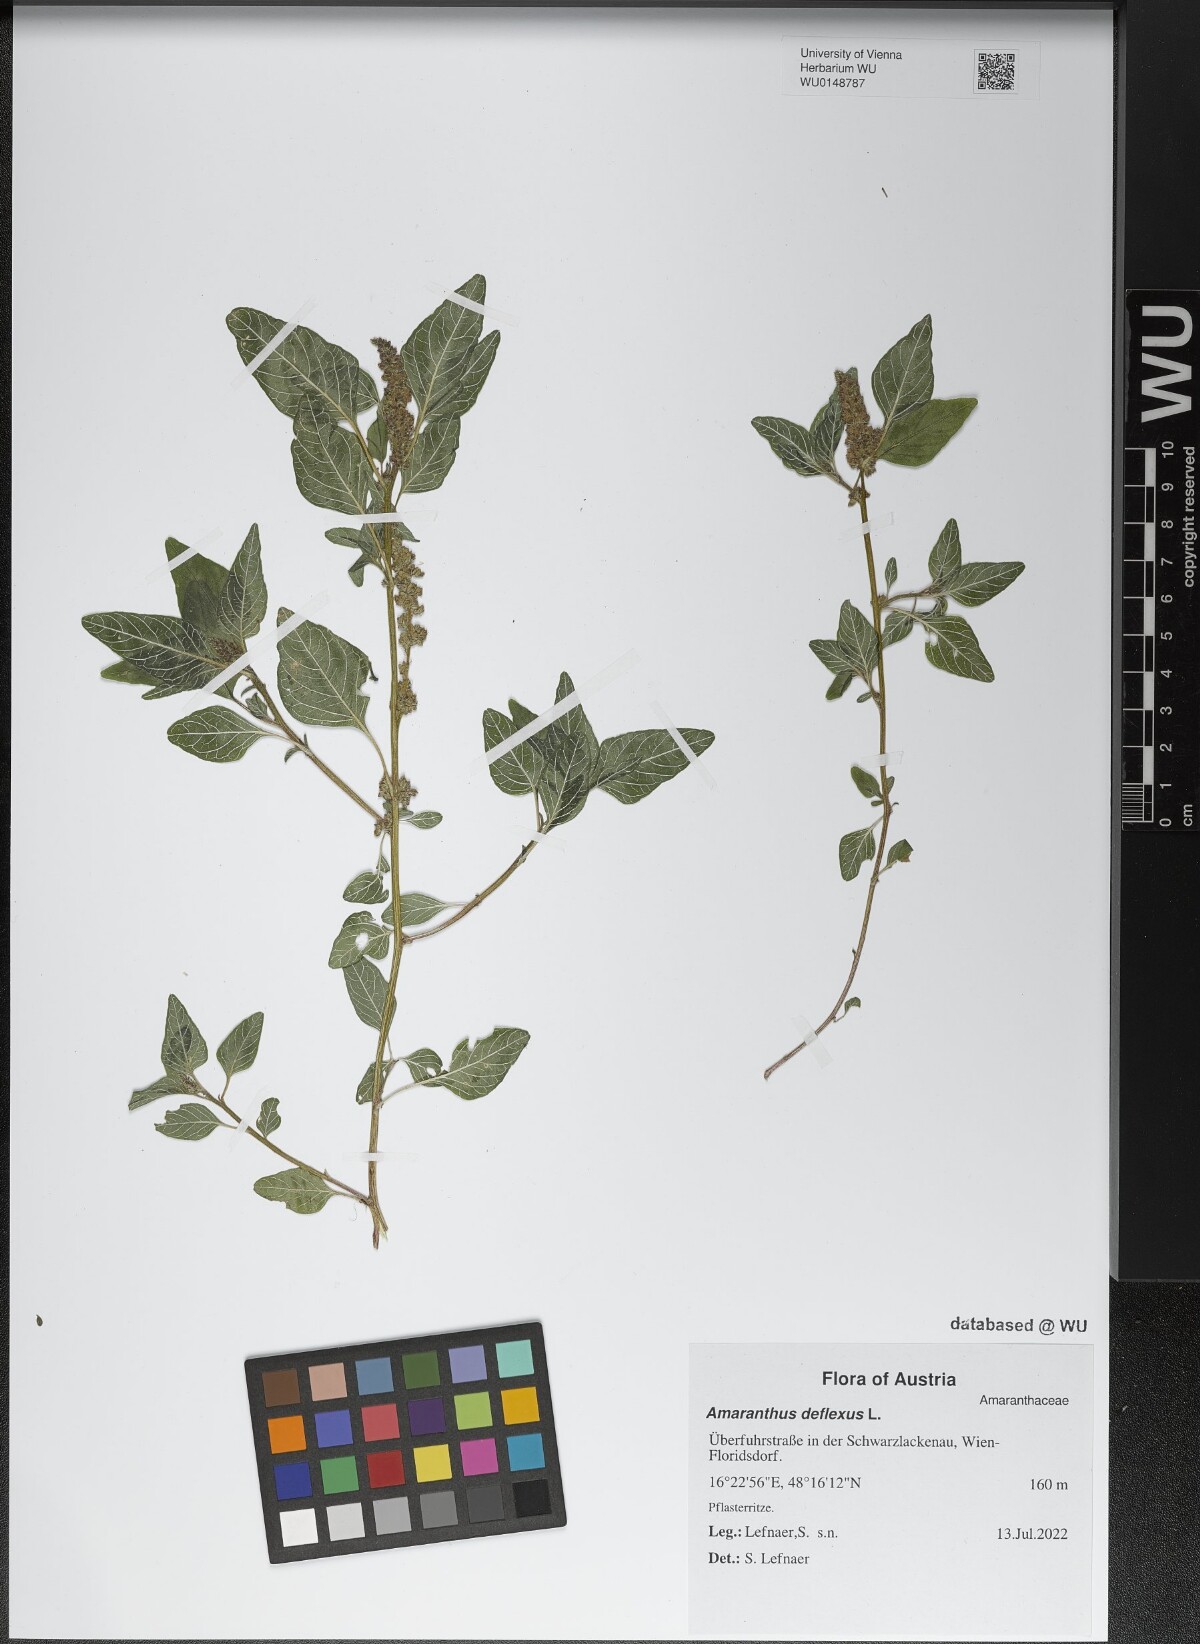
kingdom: Plantae
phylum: Tracheophyta
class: Magnoliopsida
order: Caryophyllales
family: Amaranthaceae
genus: Amaranthus
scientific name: Amaranthus deflexus
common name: Perennial pigweed
